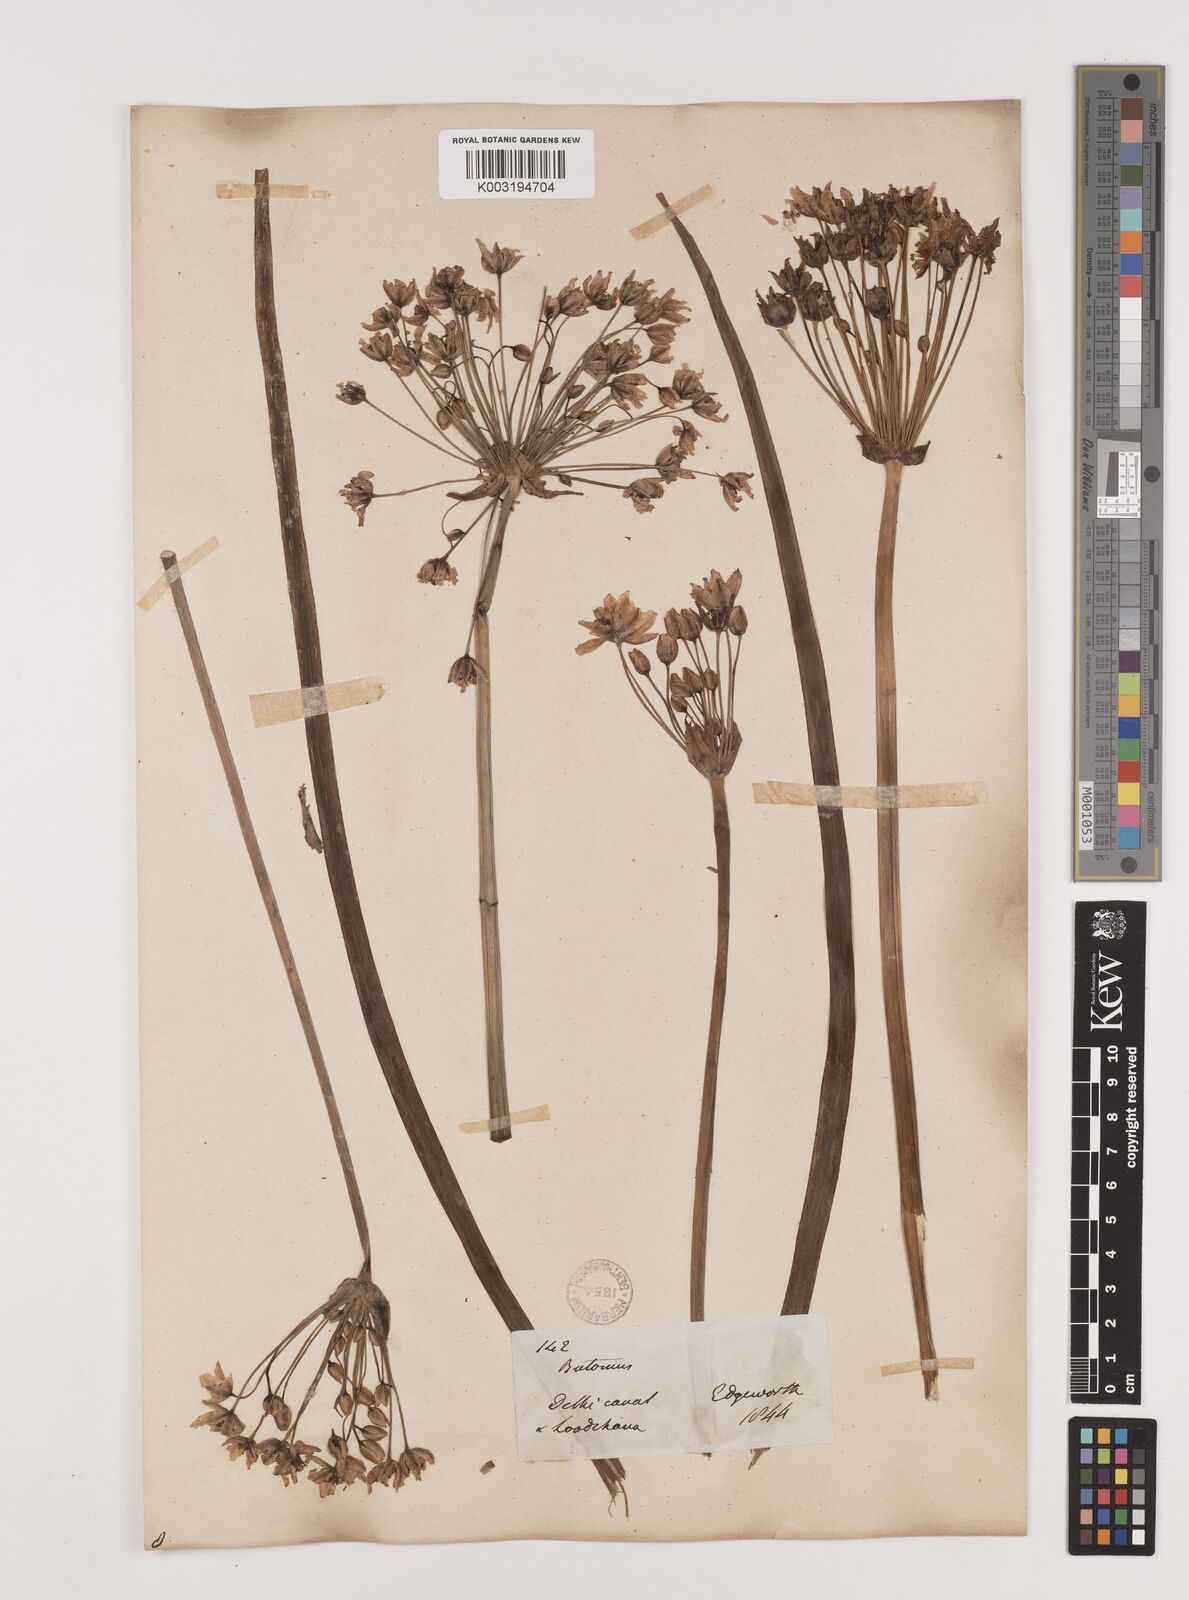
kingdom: Plantae
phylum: Tracheophyta
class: Liliopsida
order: Alismatales
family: Butomaceae
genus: Butomus
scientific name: Butomus umbellatus
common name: Flowering-rush
